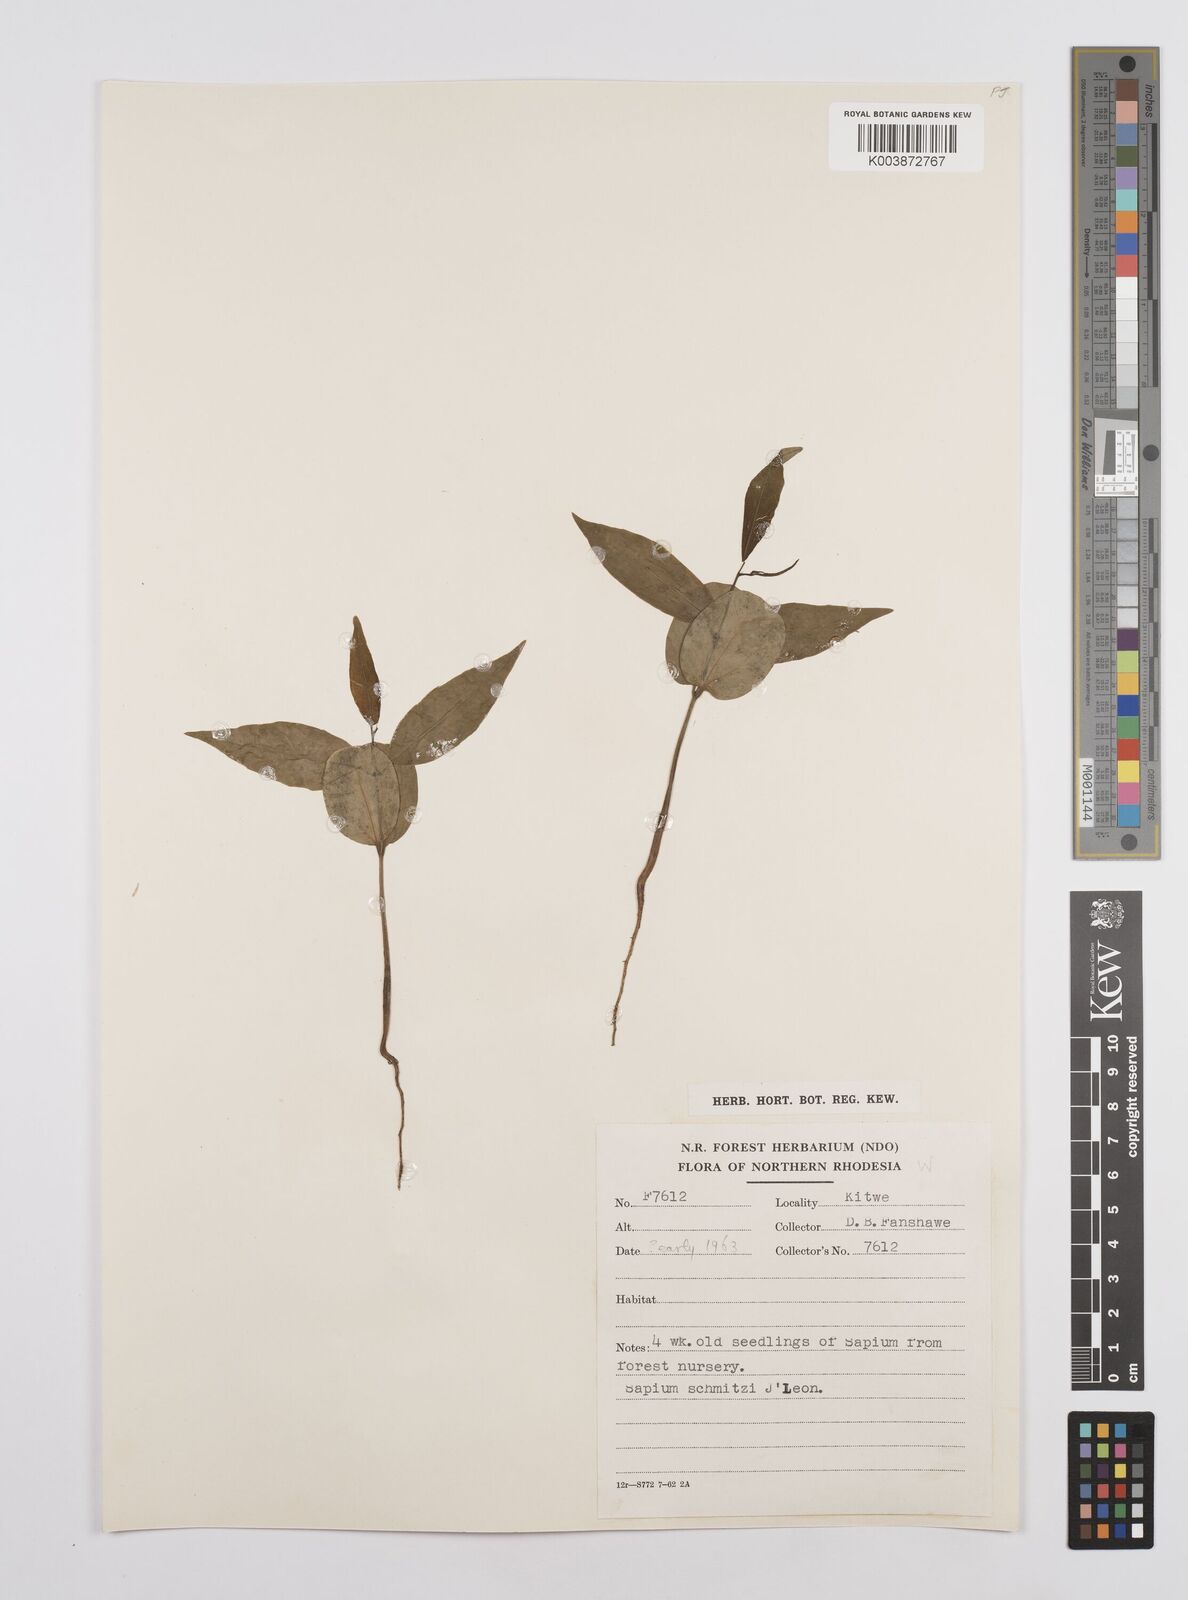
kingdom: Plantae
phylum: Tracheophyta
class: Magnoliopsida
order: Malpighiales
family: Euphorbiaceae
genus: Sclerocroton
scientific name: Sclerocroton schmitzii
